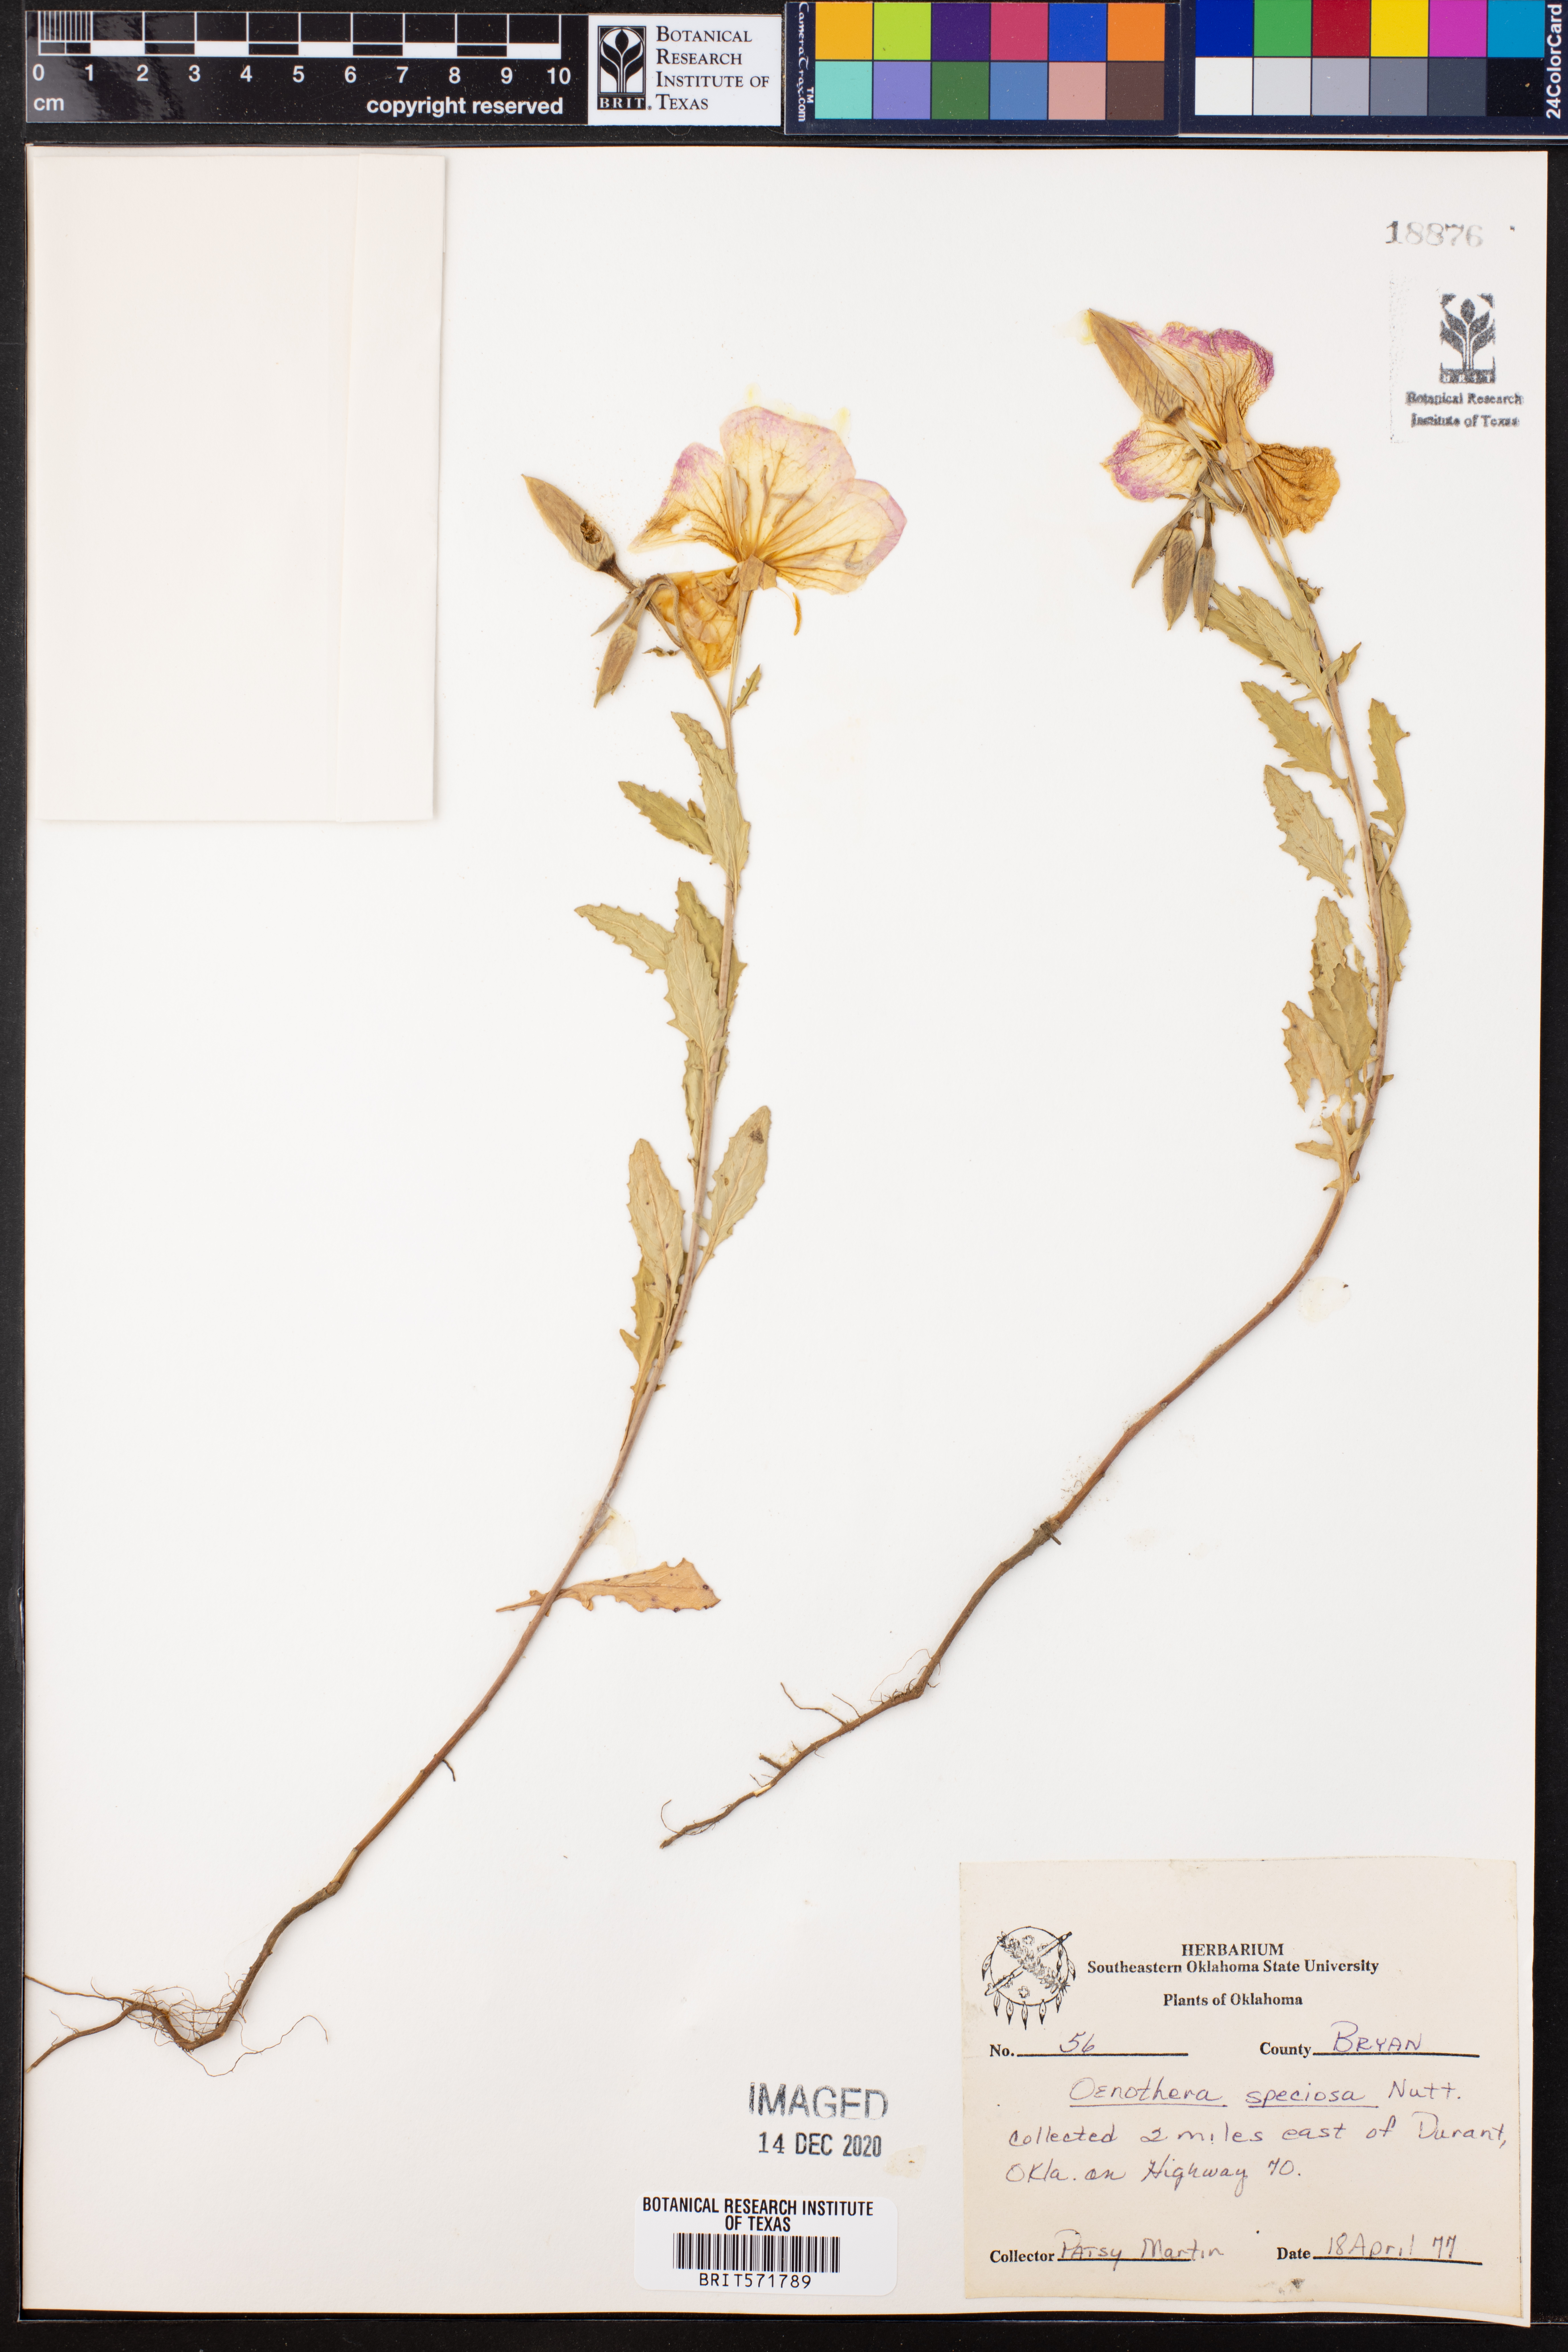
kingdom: Plantae
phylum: Tracheophyta
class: Magnoliopsida
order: Myrtales
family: Onagraceae
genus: Oenothera
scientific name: Oenothera speciosa
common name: White evening-primrose
